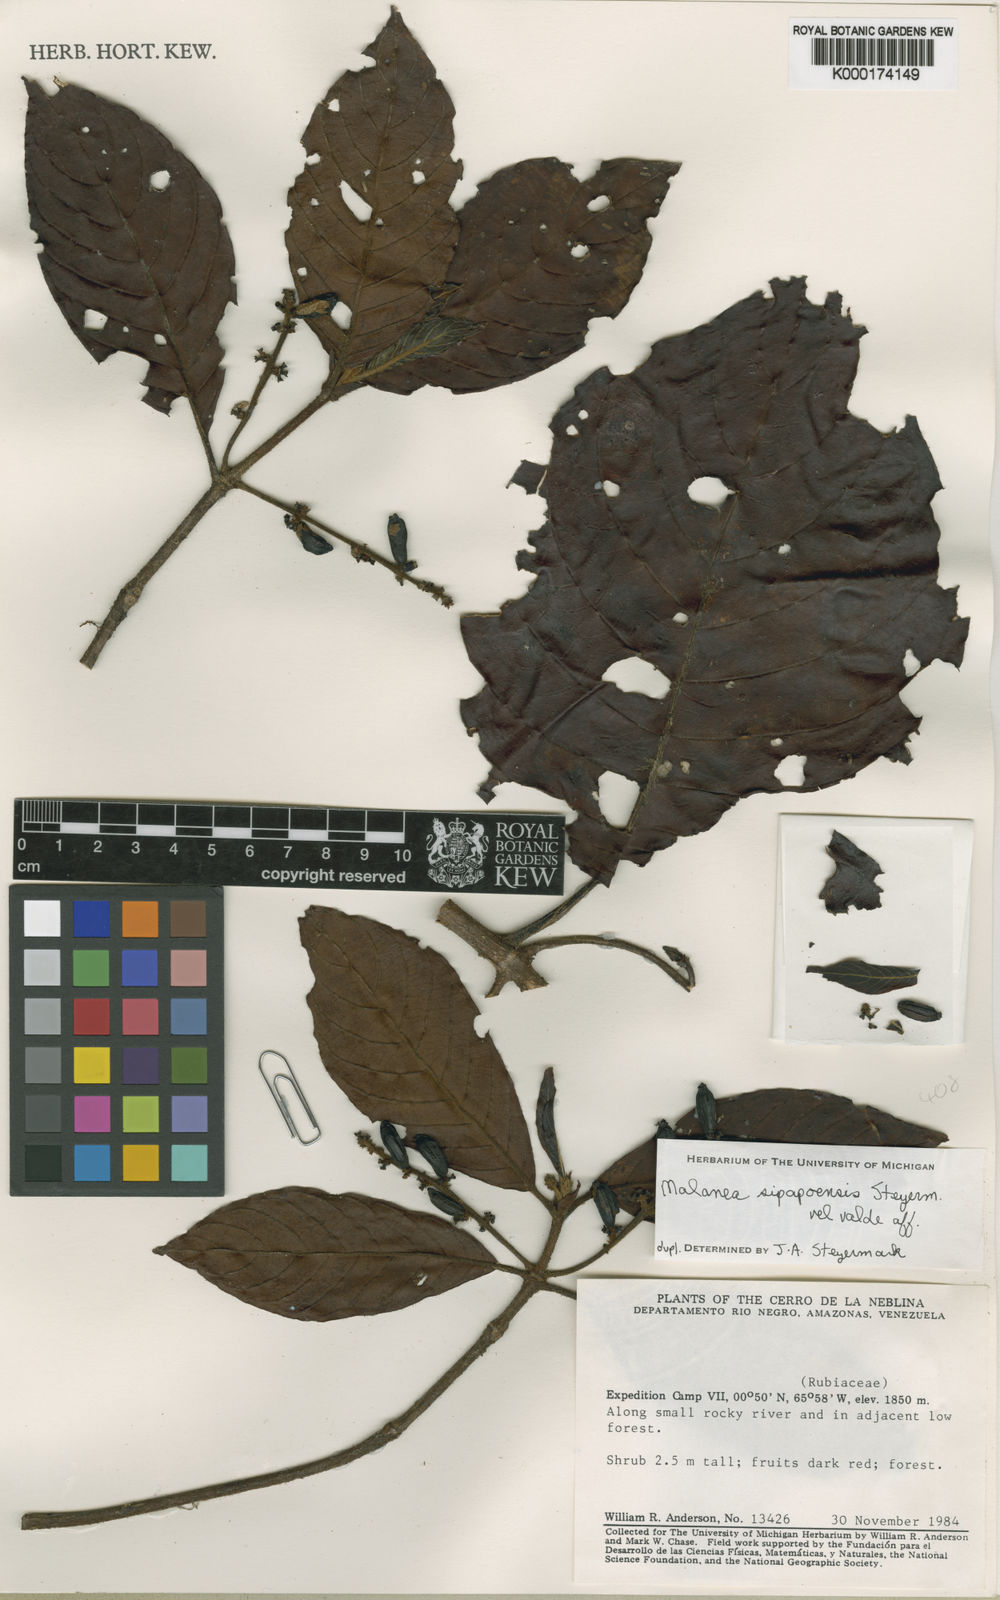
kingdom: Plantae
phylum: Tracheophyta
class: Magnoliopsida
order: Gentianales
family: Rubiaceae
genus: Malanea
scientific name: Malanea sipapoensis
